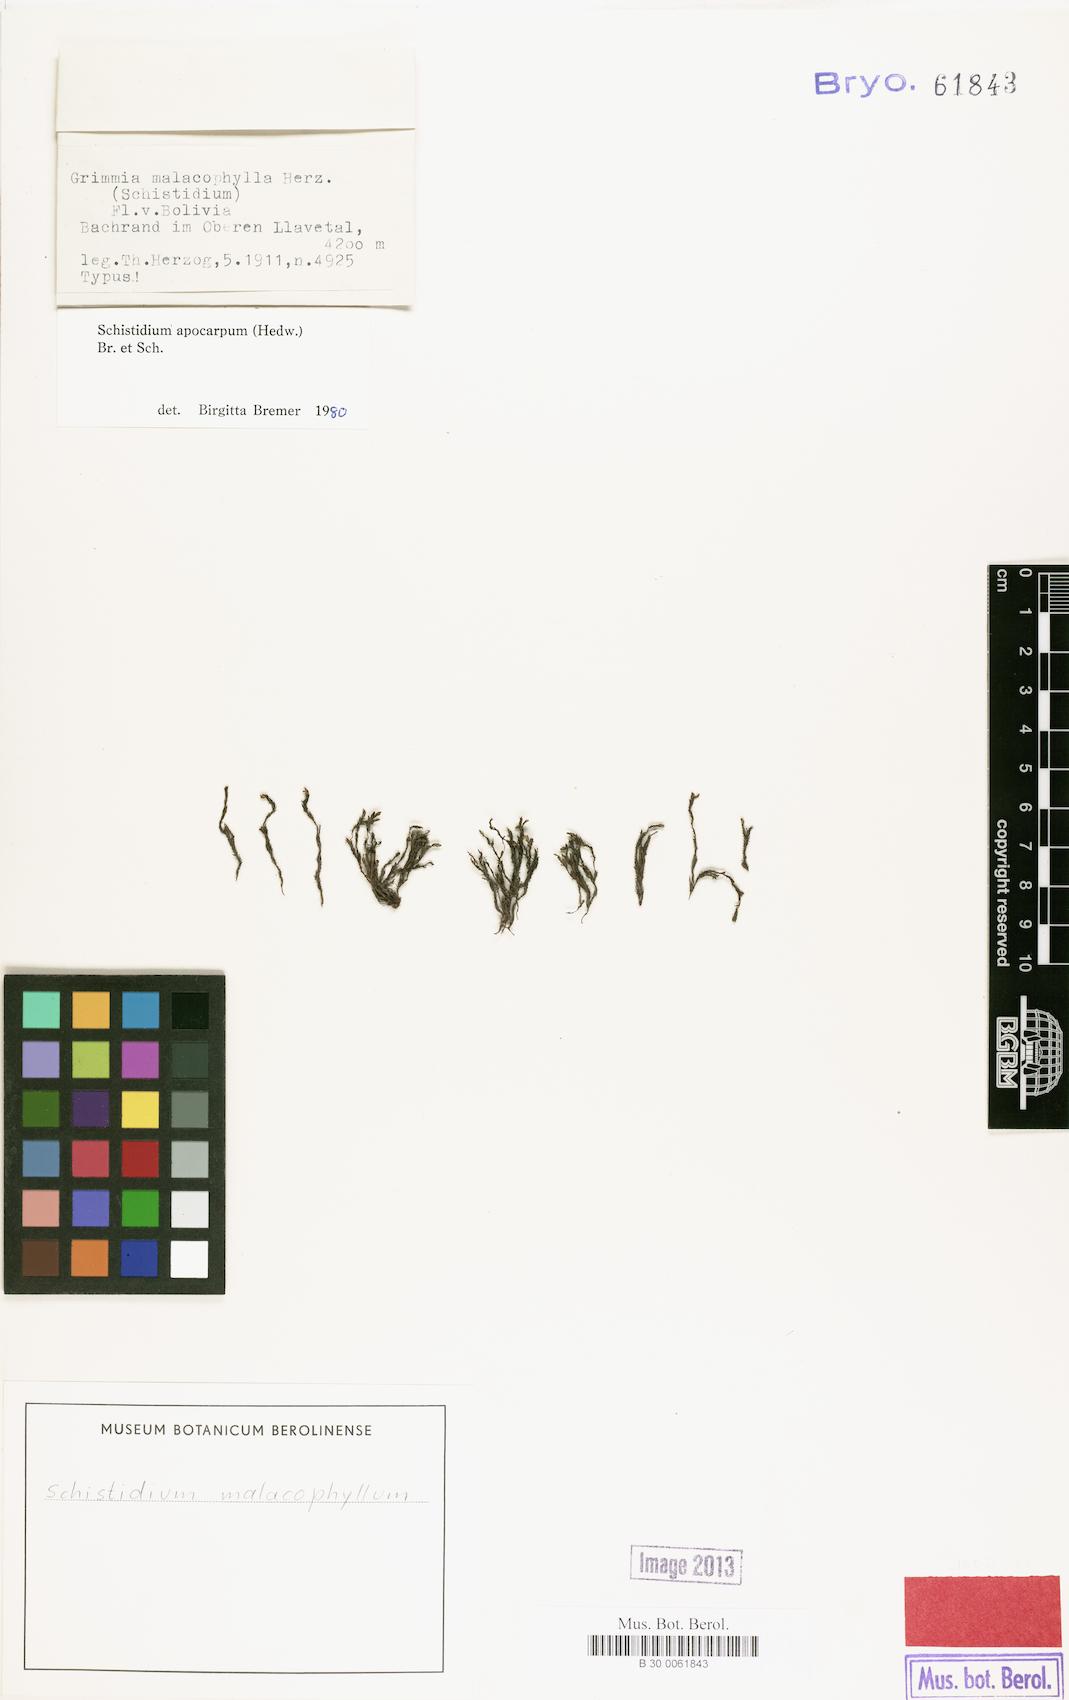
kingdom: Plantae
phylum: Bryophyta
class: Bryopsida
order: Grimmiales
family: Grimmiaceae
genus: Schistidium
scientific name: Schistidium apocarpum
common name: Radiate bloom moss
